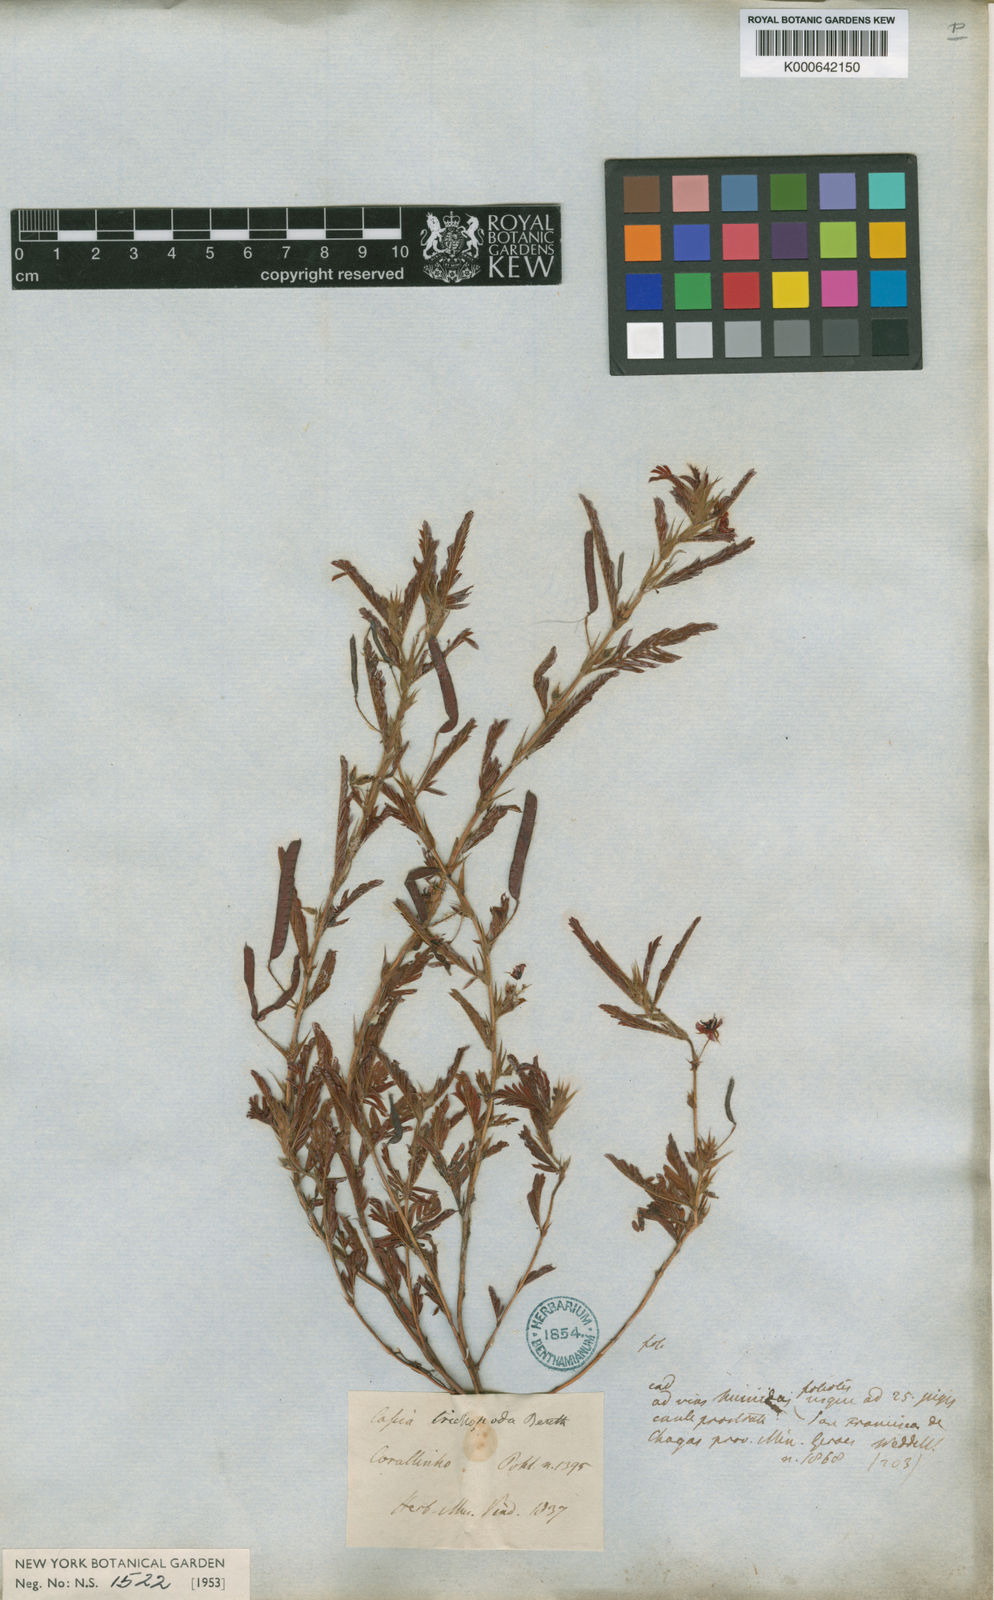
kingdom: Plantae
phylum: Tracheophyta
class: Magnoliopsida
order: Fabales
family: Fabaceae
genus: Chamaecrista
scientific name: Chamaecrista trichopoda
